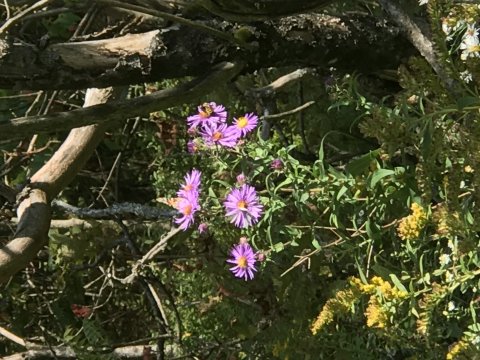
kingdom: Animalia
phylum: Arthropoda
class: Insecta
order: Lepidoptera
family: Nymphalidae
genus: Vanessa
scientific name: Vanessa cardui
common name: Painted Lady
